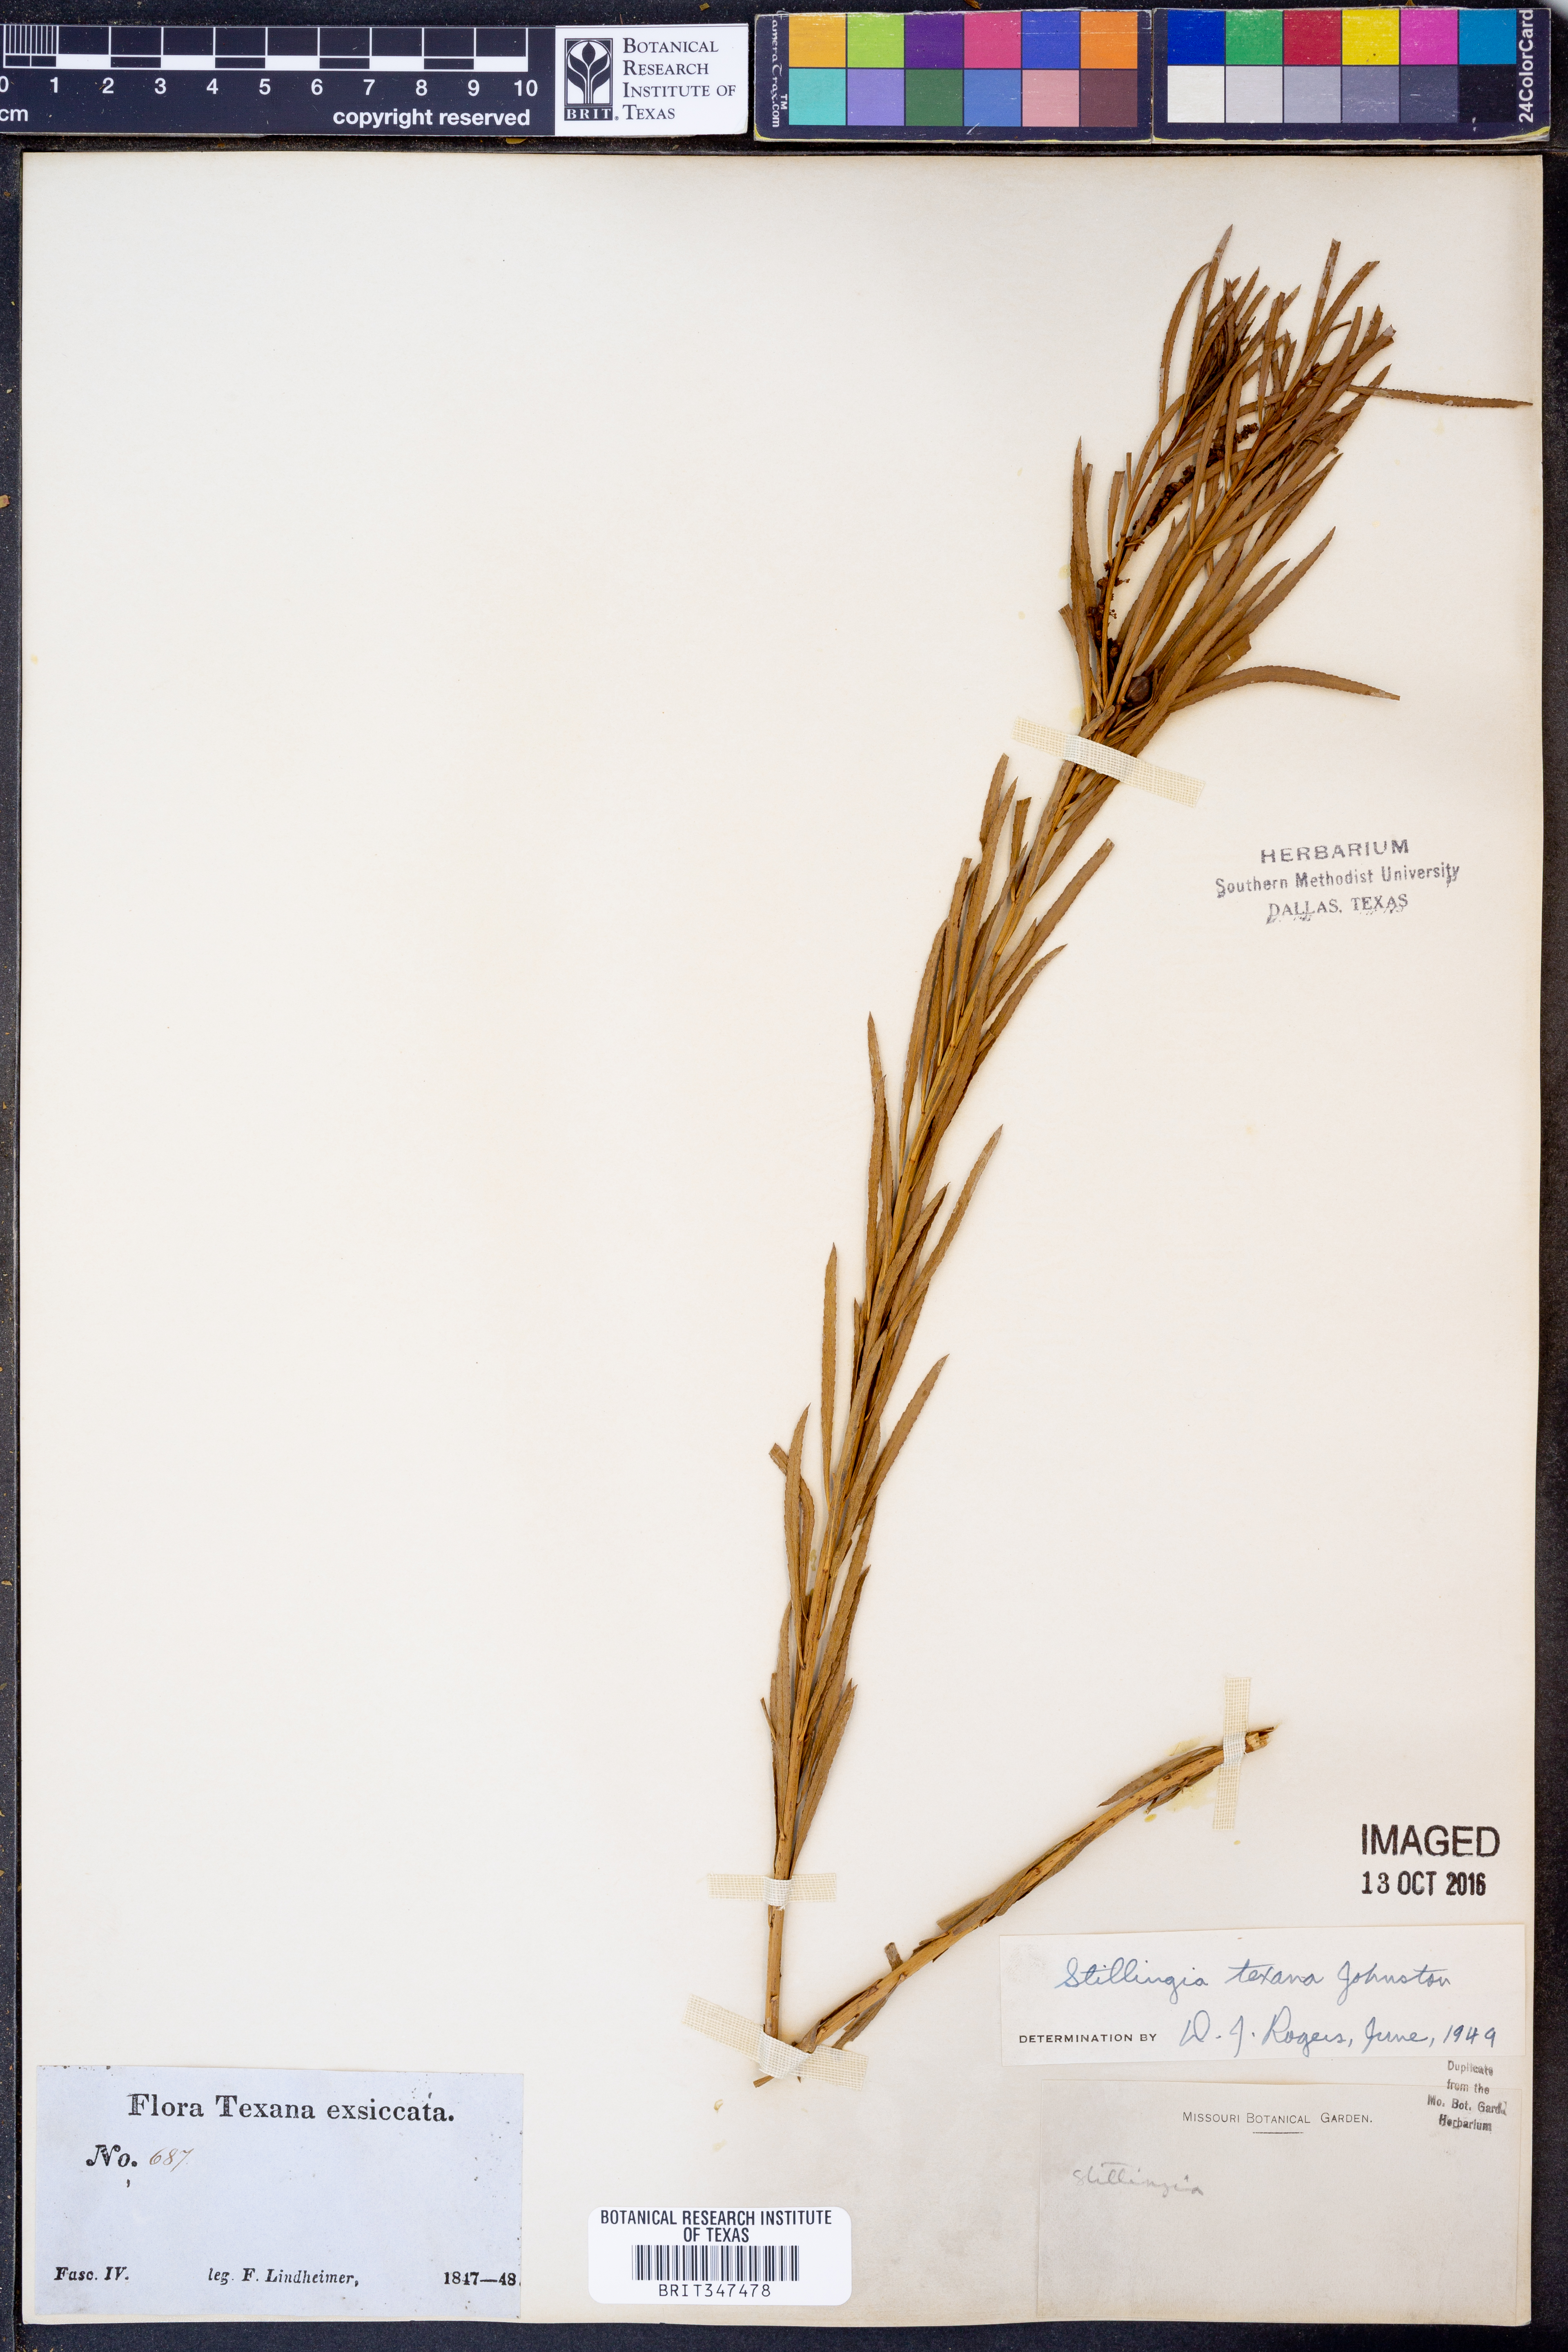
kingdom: Plantae
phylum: Tracheophyta
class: Magnoliopsida
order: Malpighiales
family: Euphorbiaceae
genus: Stillingia
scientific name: Stillingia texana
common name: Texas stillingia
